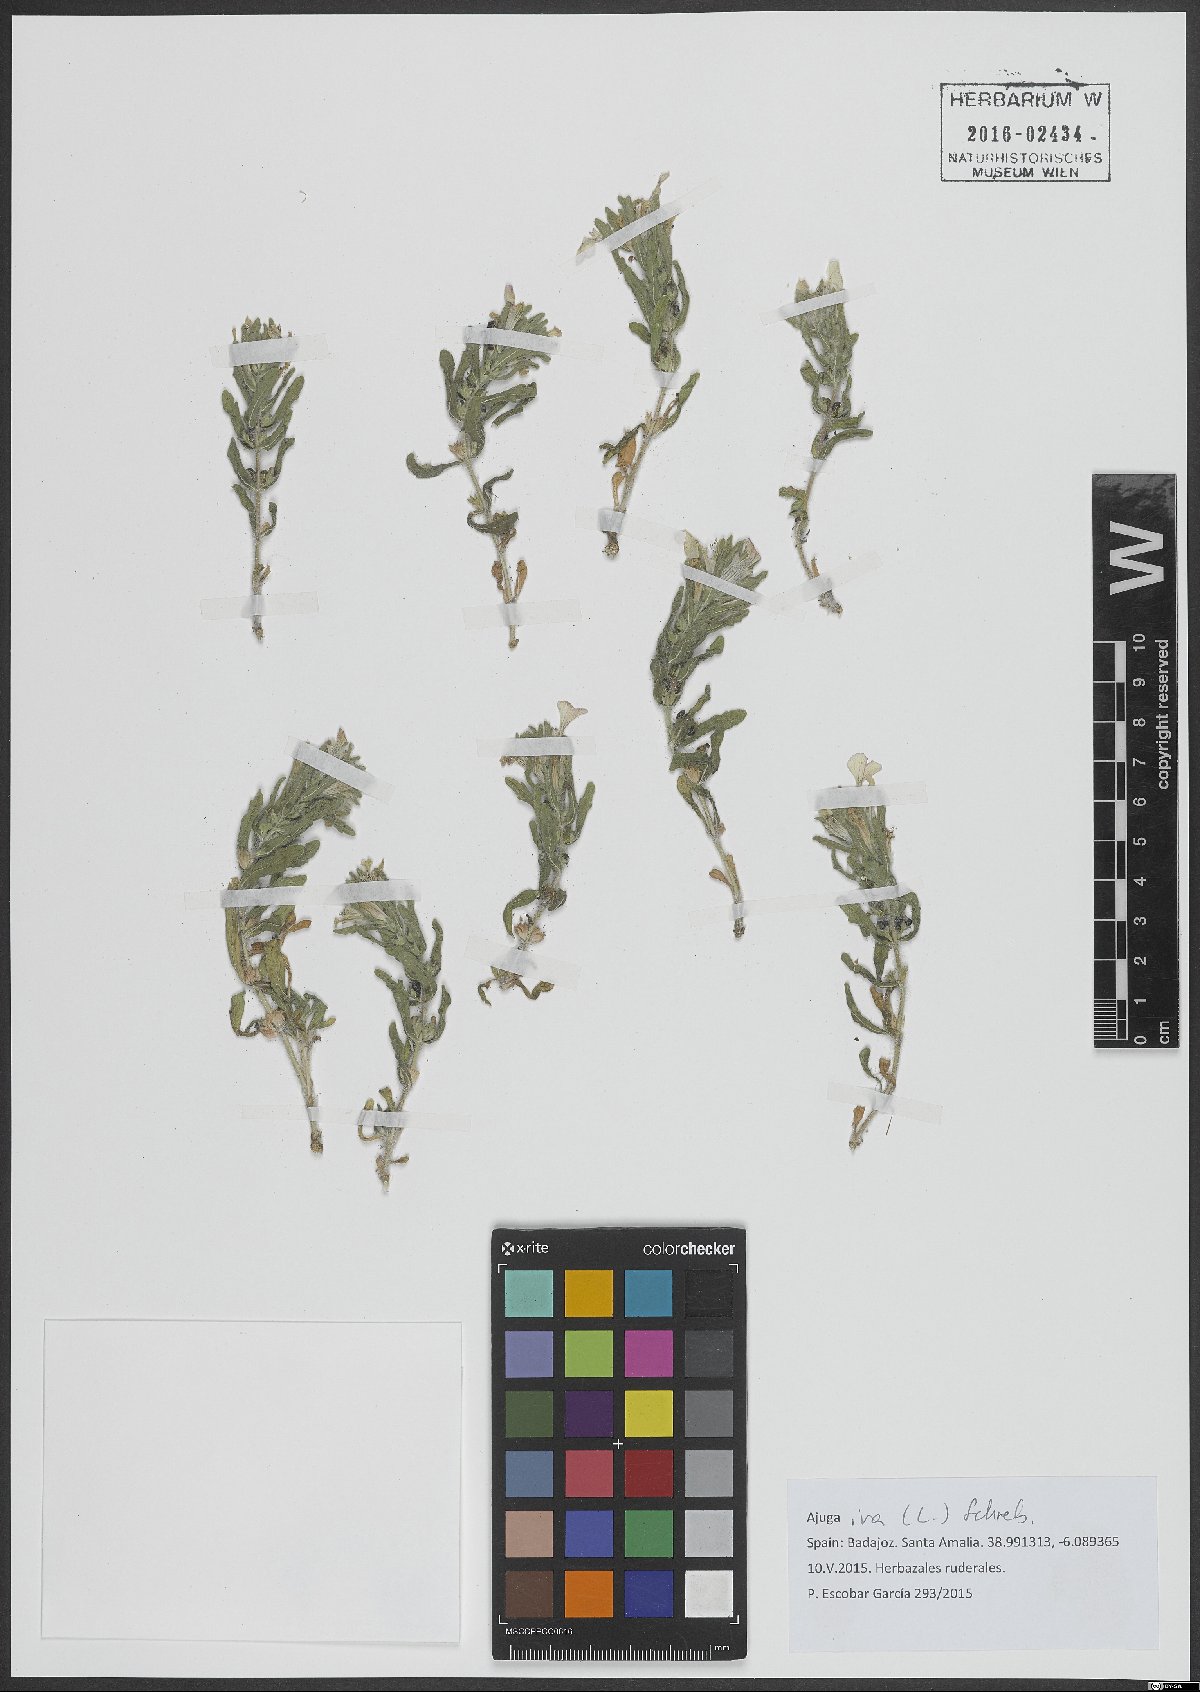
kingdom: Plantae
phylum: Tracheophyta
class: Magnoliopsida
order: Lamiales
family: Lamiaceae
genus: Ajuga
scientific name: Ajuga iva
